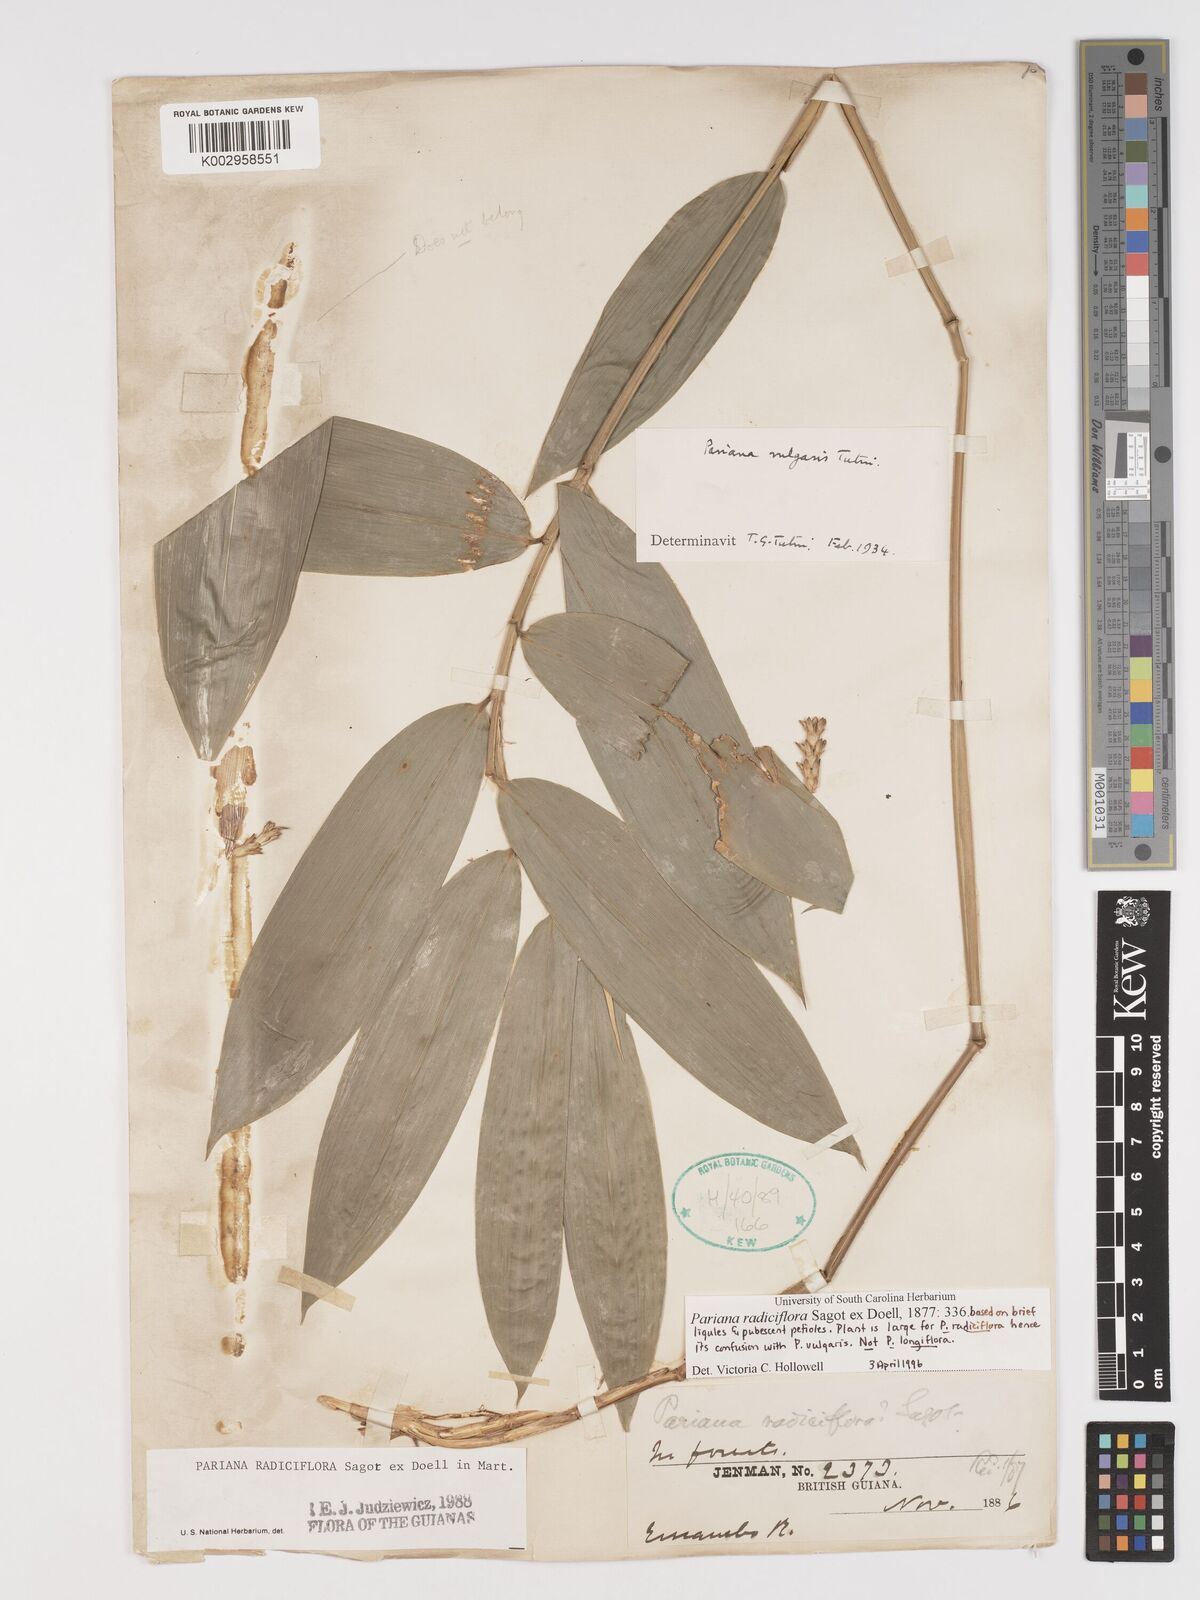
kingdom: Plantae
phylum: Tracheophyta
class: Liliopsida
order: Poales
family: Poaceae
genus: Pariana
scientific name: Pariana radiciflora
